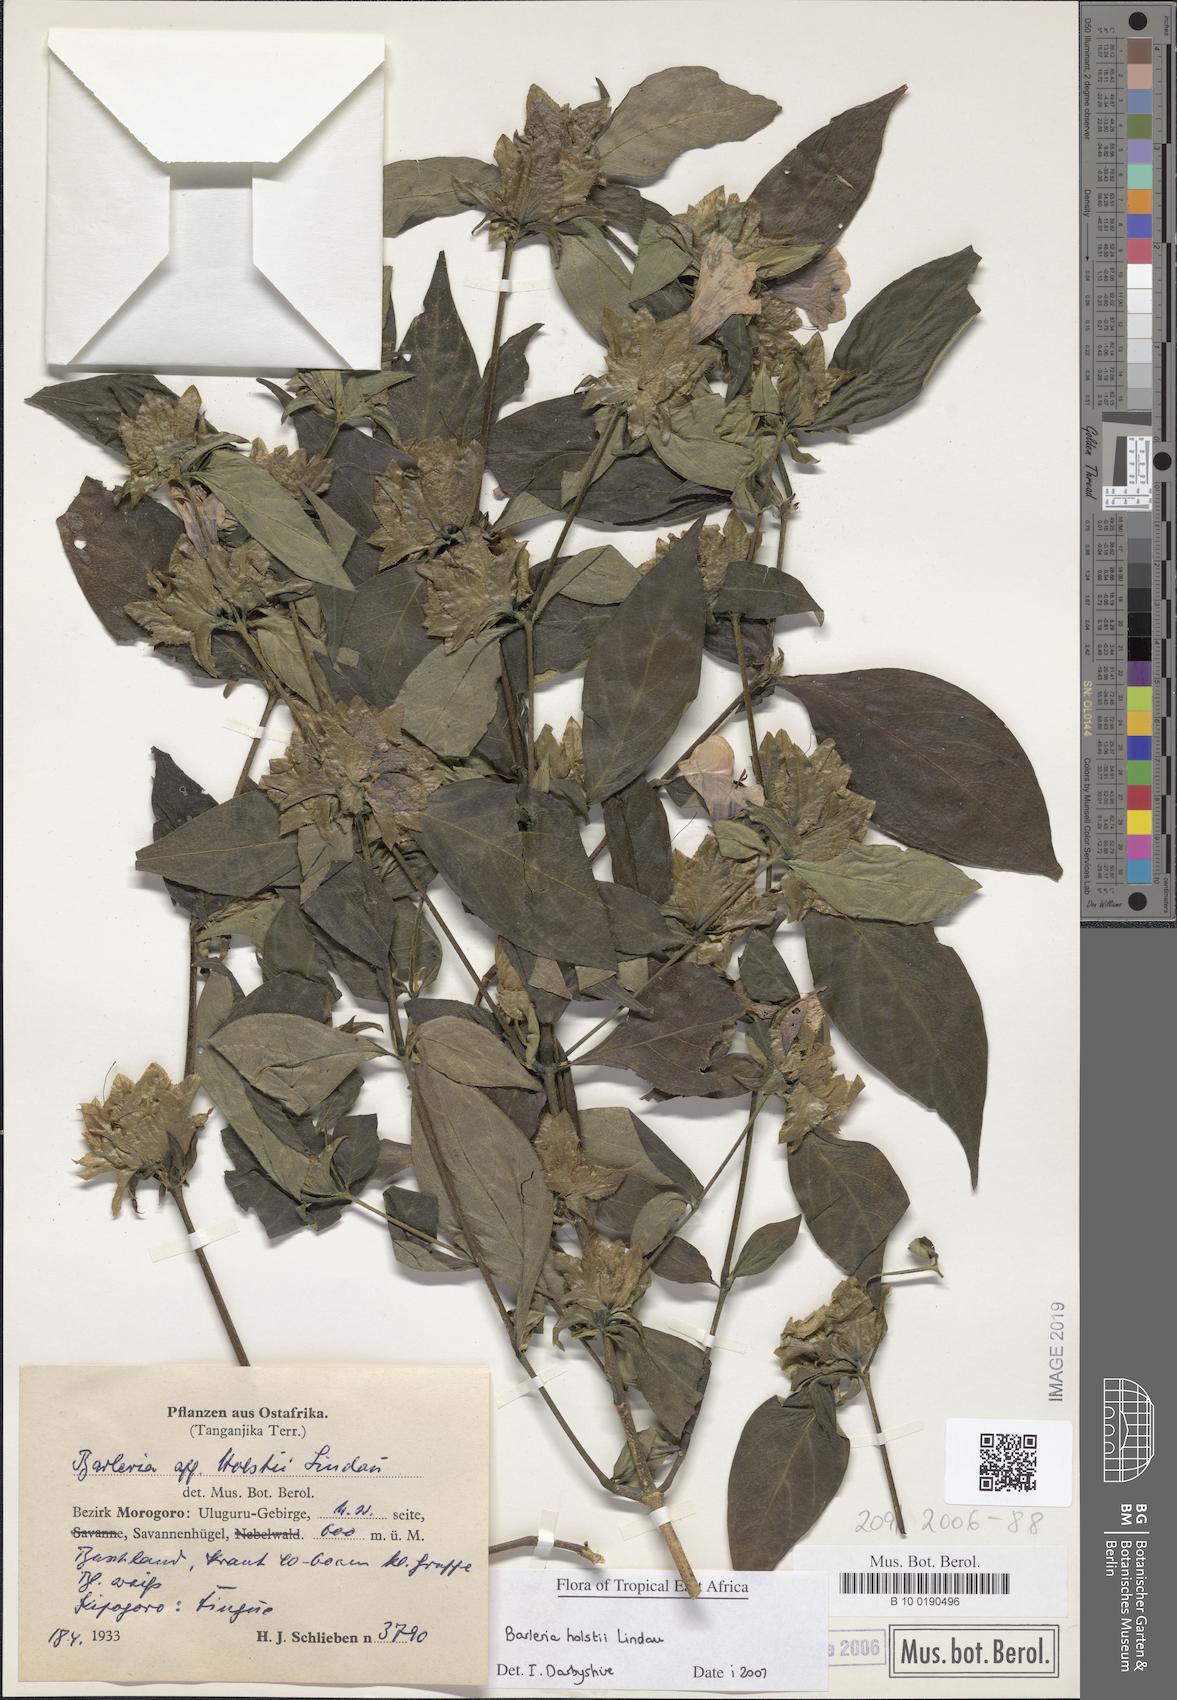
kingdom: Plantae
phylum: Tracheophyta
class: Magnoliopsida
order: Lamiales
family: Acanthaceae
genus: Barleria
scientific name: Barleria holstii
